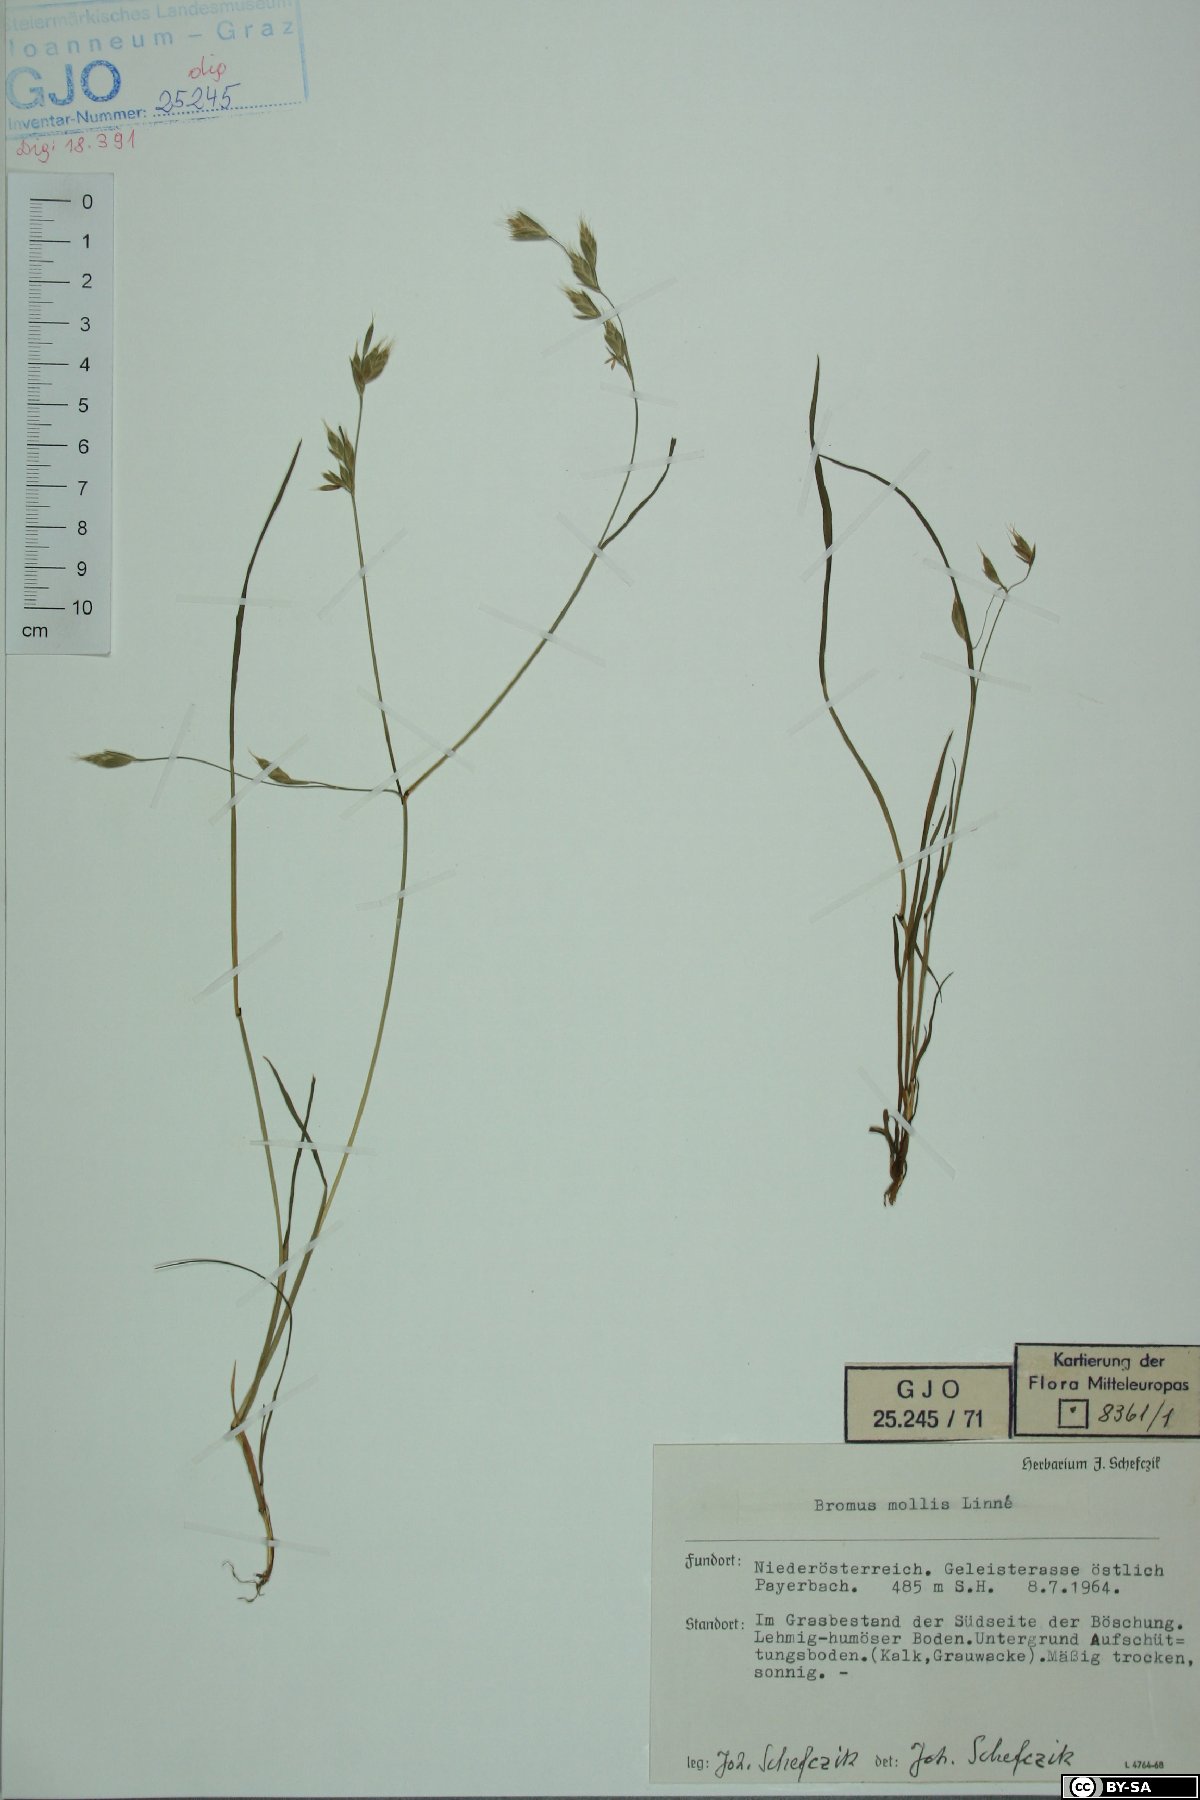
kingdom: Plantae
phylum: Tracheophyta
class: Liliopsida
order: Poales
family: Poaceae
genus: Bromus
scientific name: Bromus hordeaceus
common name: Soft brome
